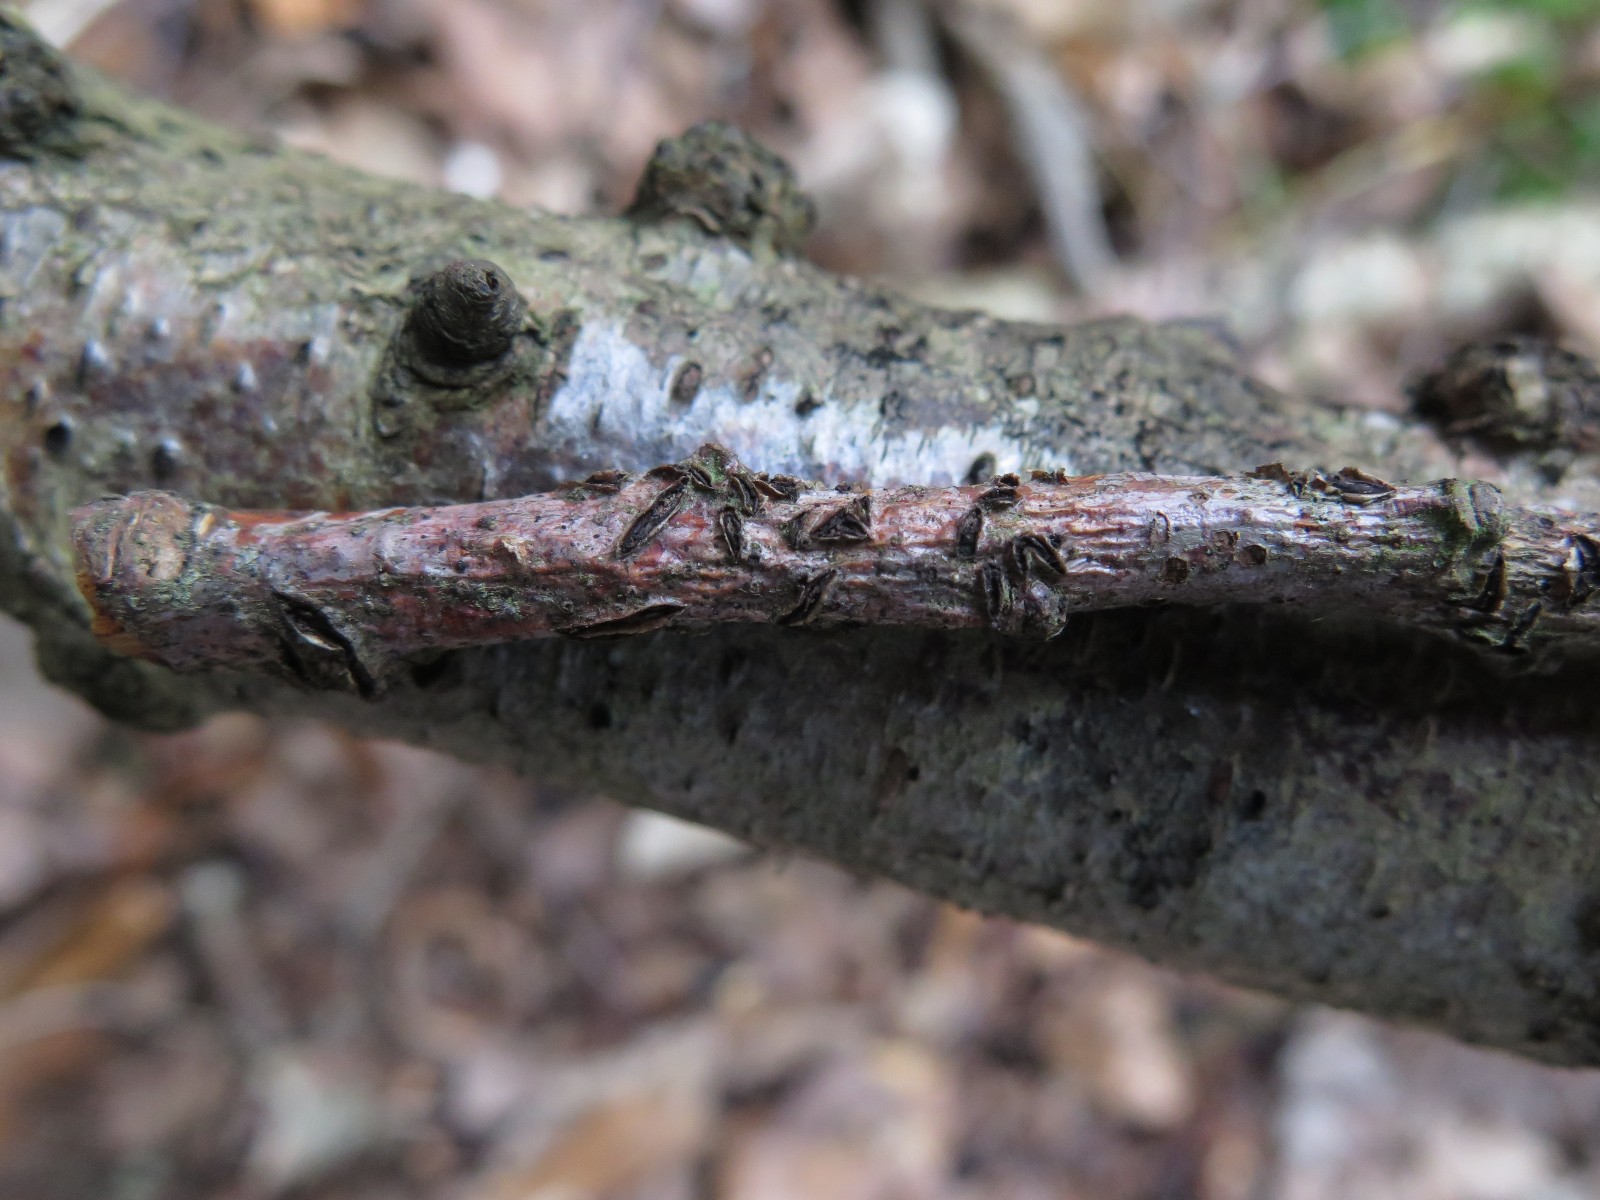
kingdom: Fungi
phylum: Ascomycota
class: Leotiomycetes
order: Rhytismatales
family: Rhytismataceae
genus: Colpoma
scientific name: Colpoma quercinum
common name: ege-sprækkeskive
